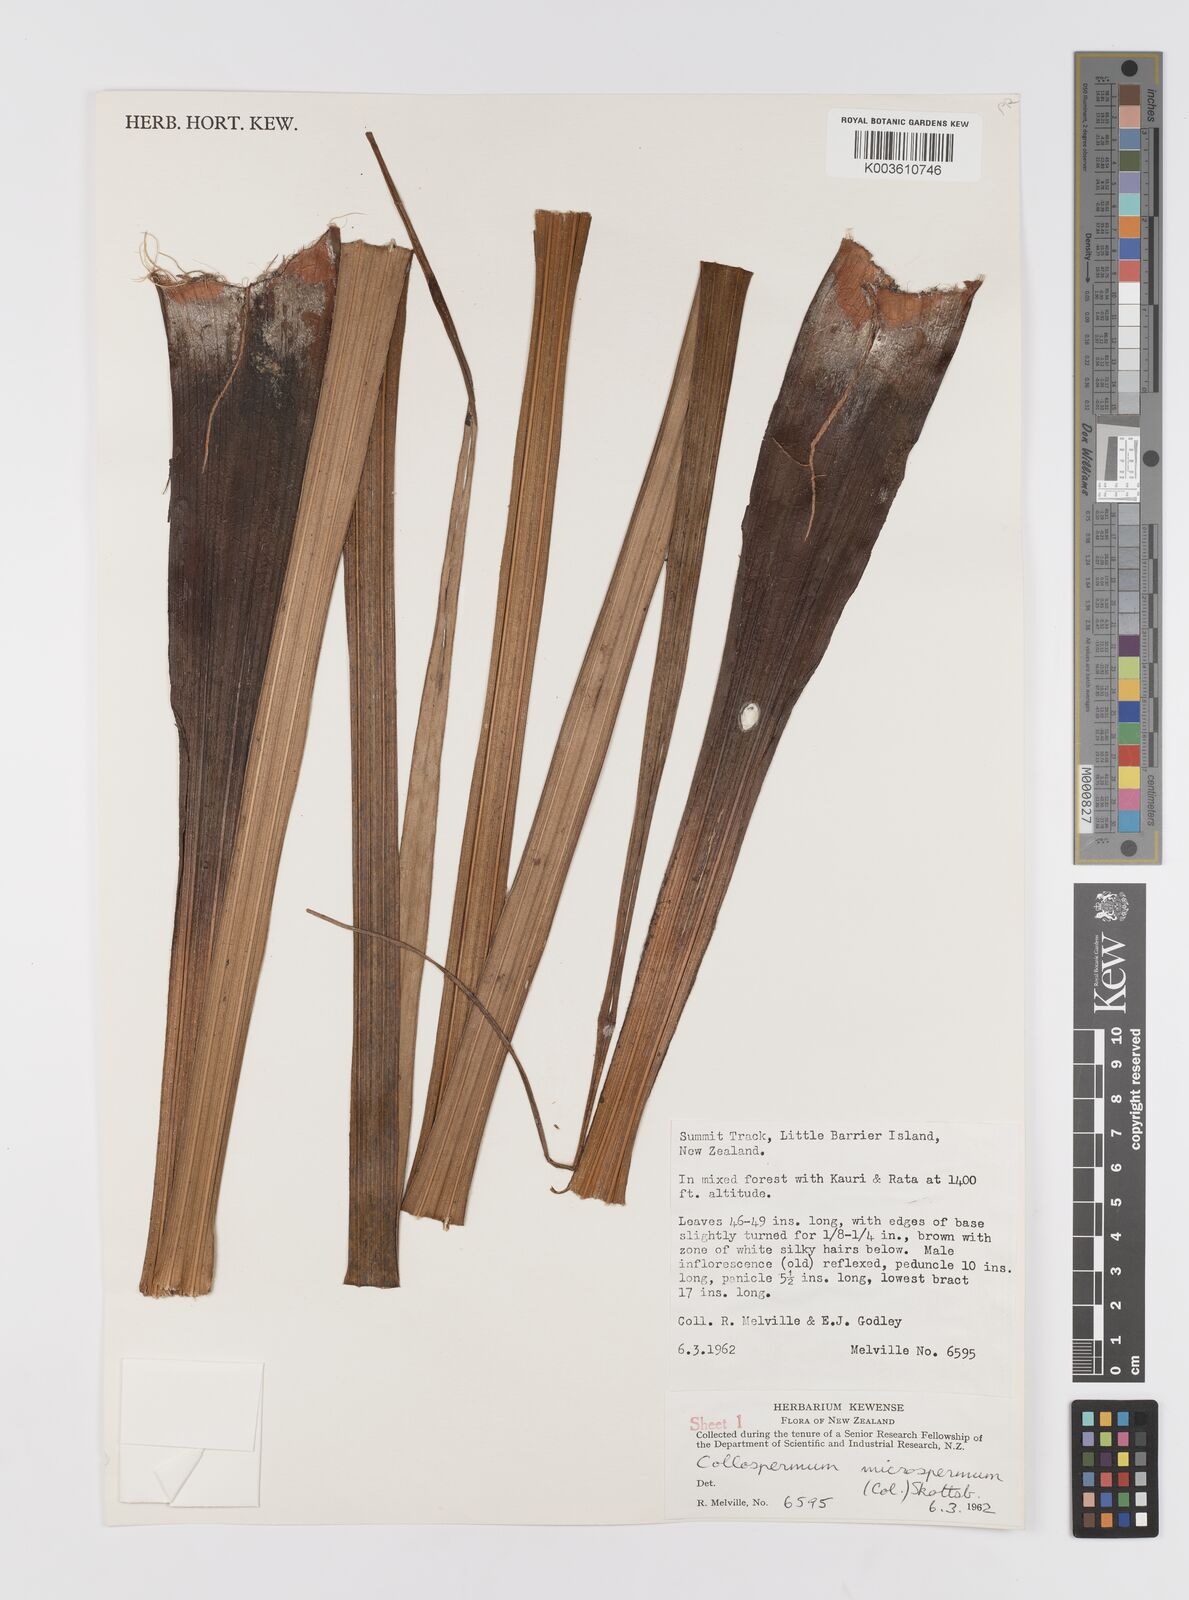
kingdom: Plantae
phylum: Tracheophyta
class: Liliopsida
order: Asparagales
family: Asteliaceae
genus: Astelia
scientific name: Astelia microsperma
